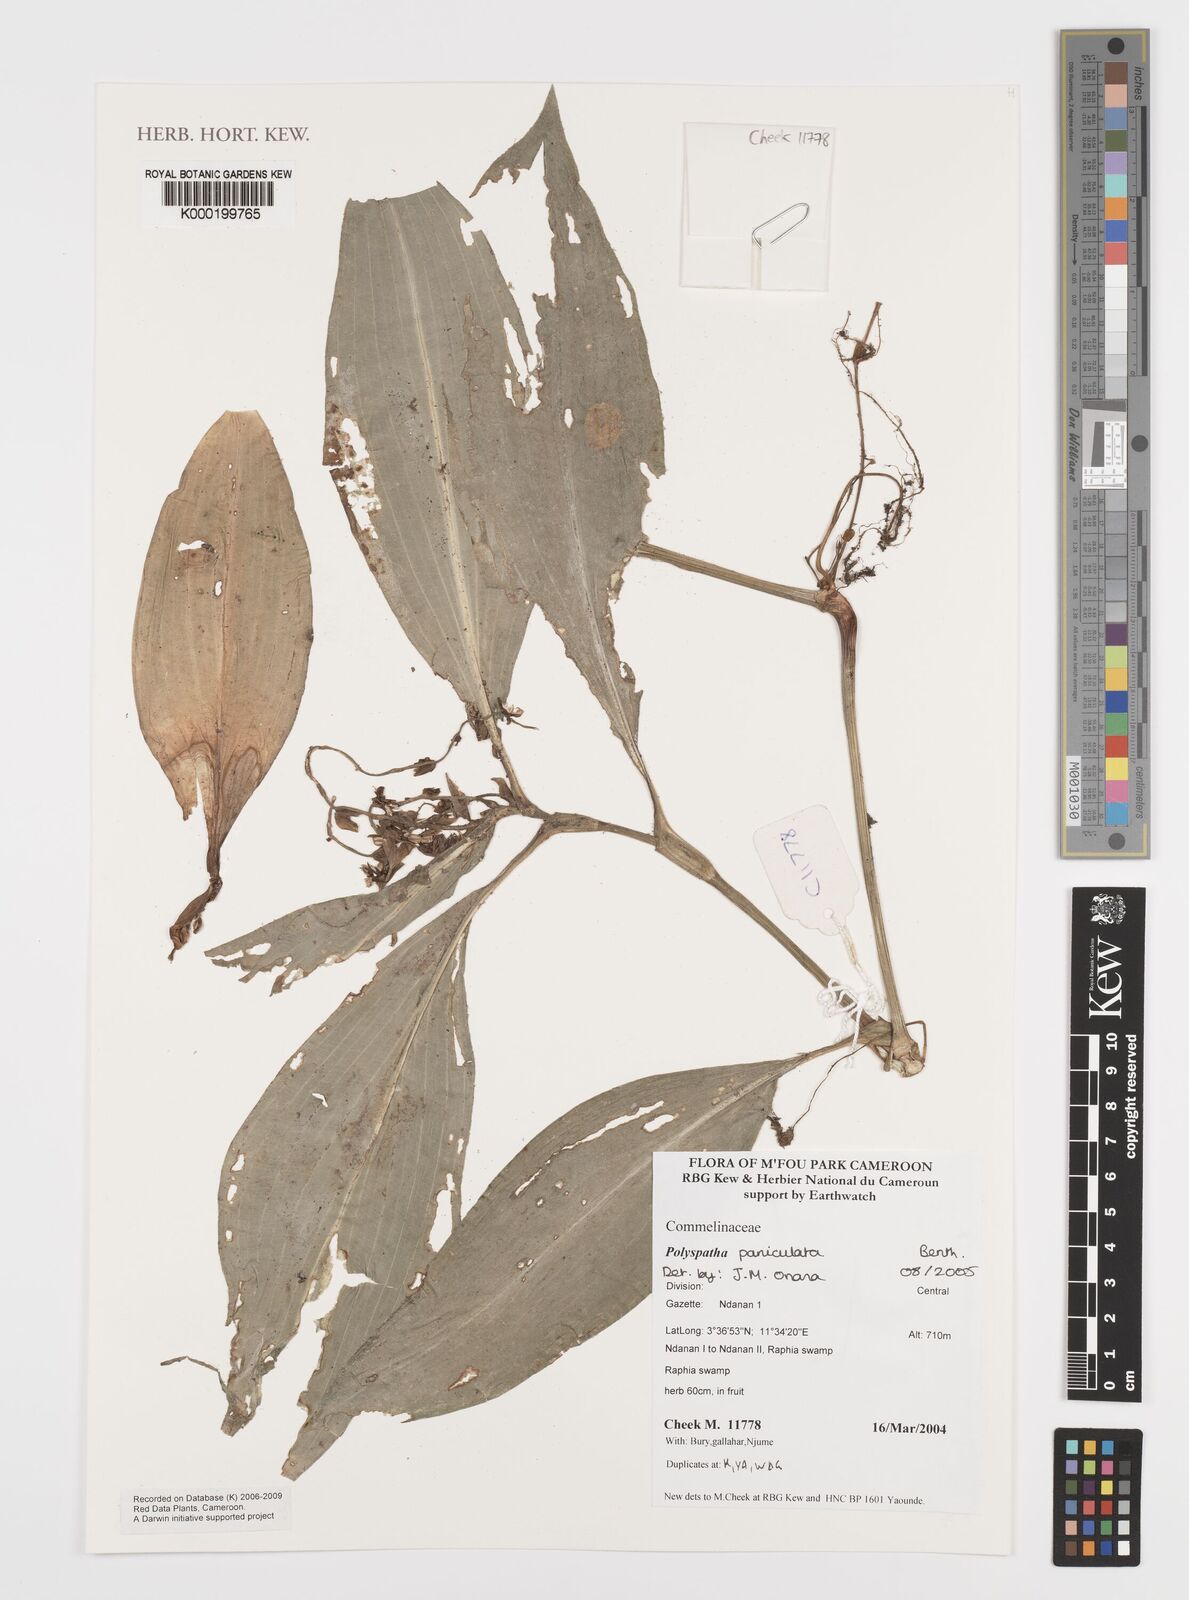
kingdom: Plantae
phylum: Tracheophyta
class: Liliopsida
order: Commelinales
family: Commelinaceae
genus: Polyspatha
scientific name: Polyspatha paniculata
